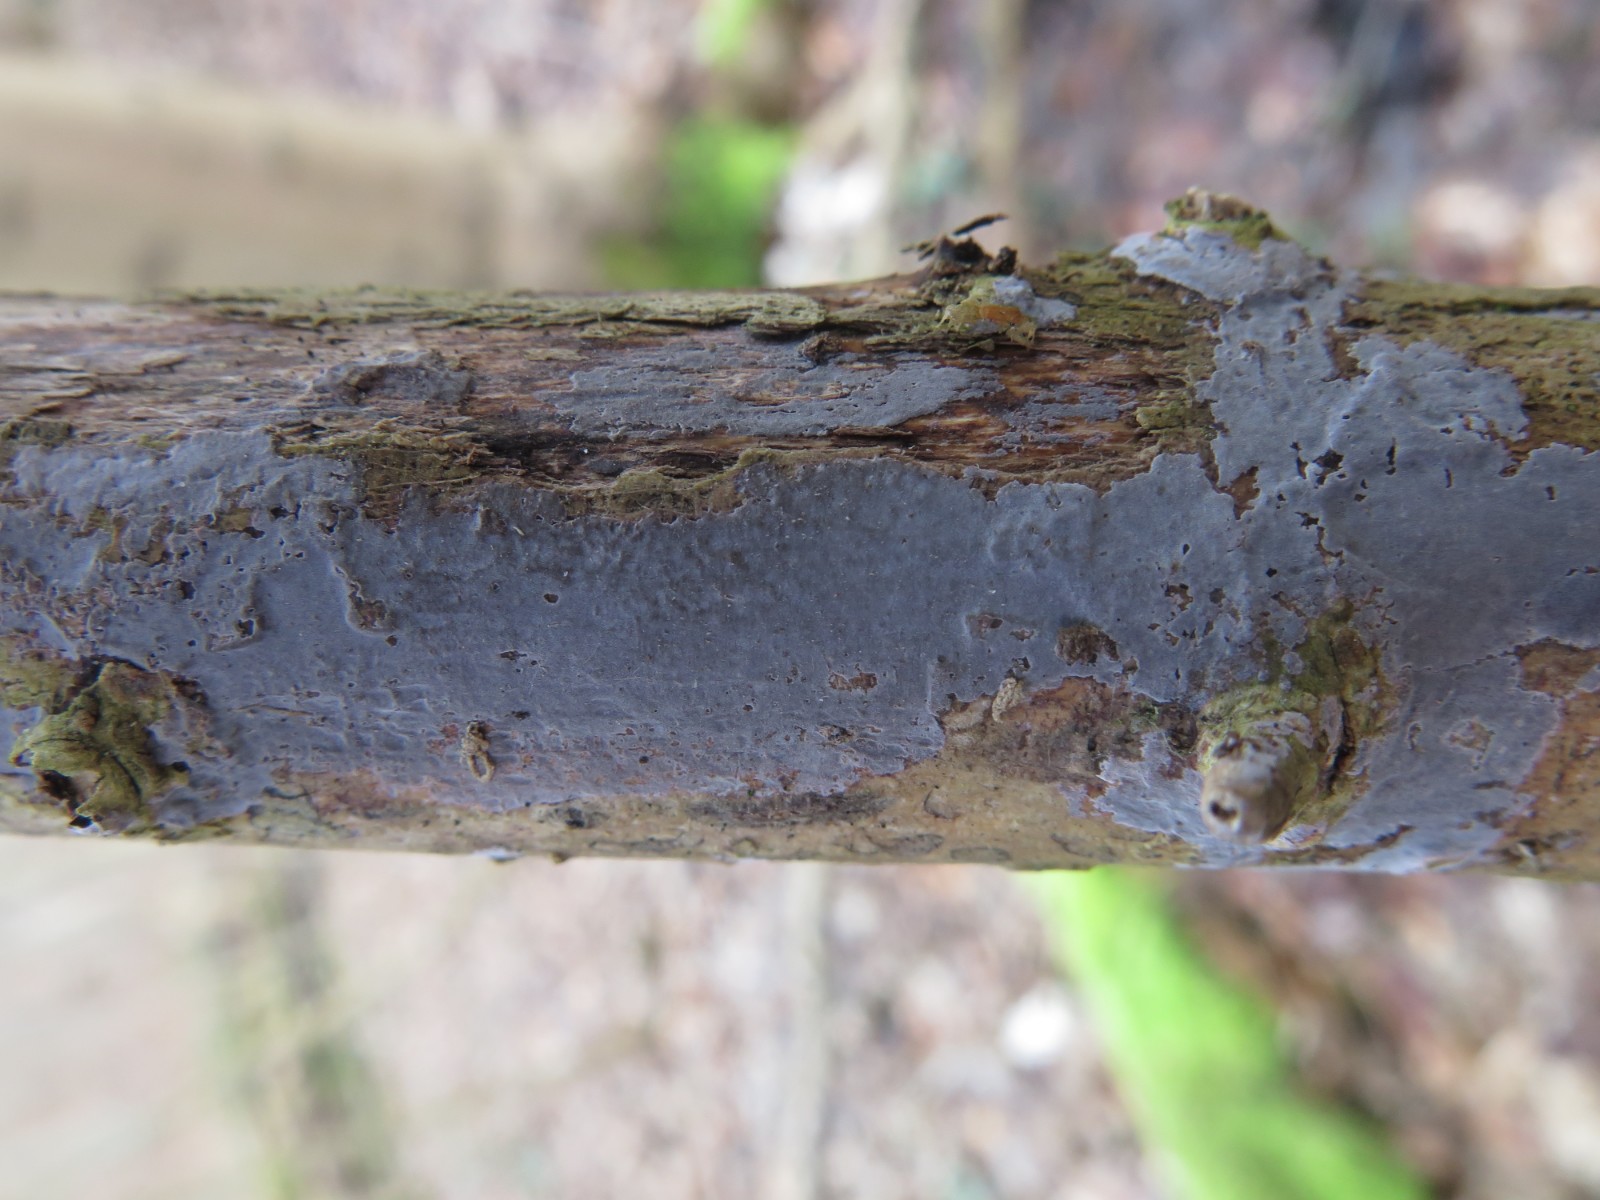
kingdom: Fungi
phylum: Basidiomycota
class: Agaricomycetes
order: Russulales
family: Peniophoraceae
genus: Peniophora
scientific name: Peniophora lycii
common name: grynet voksskind
